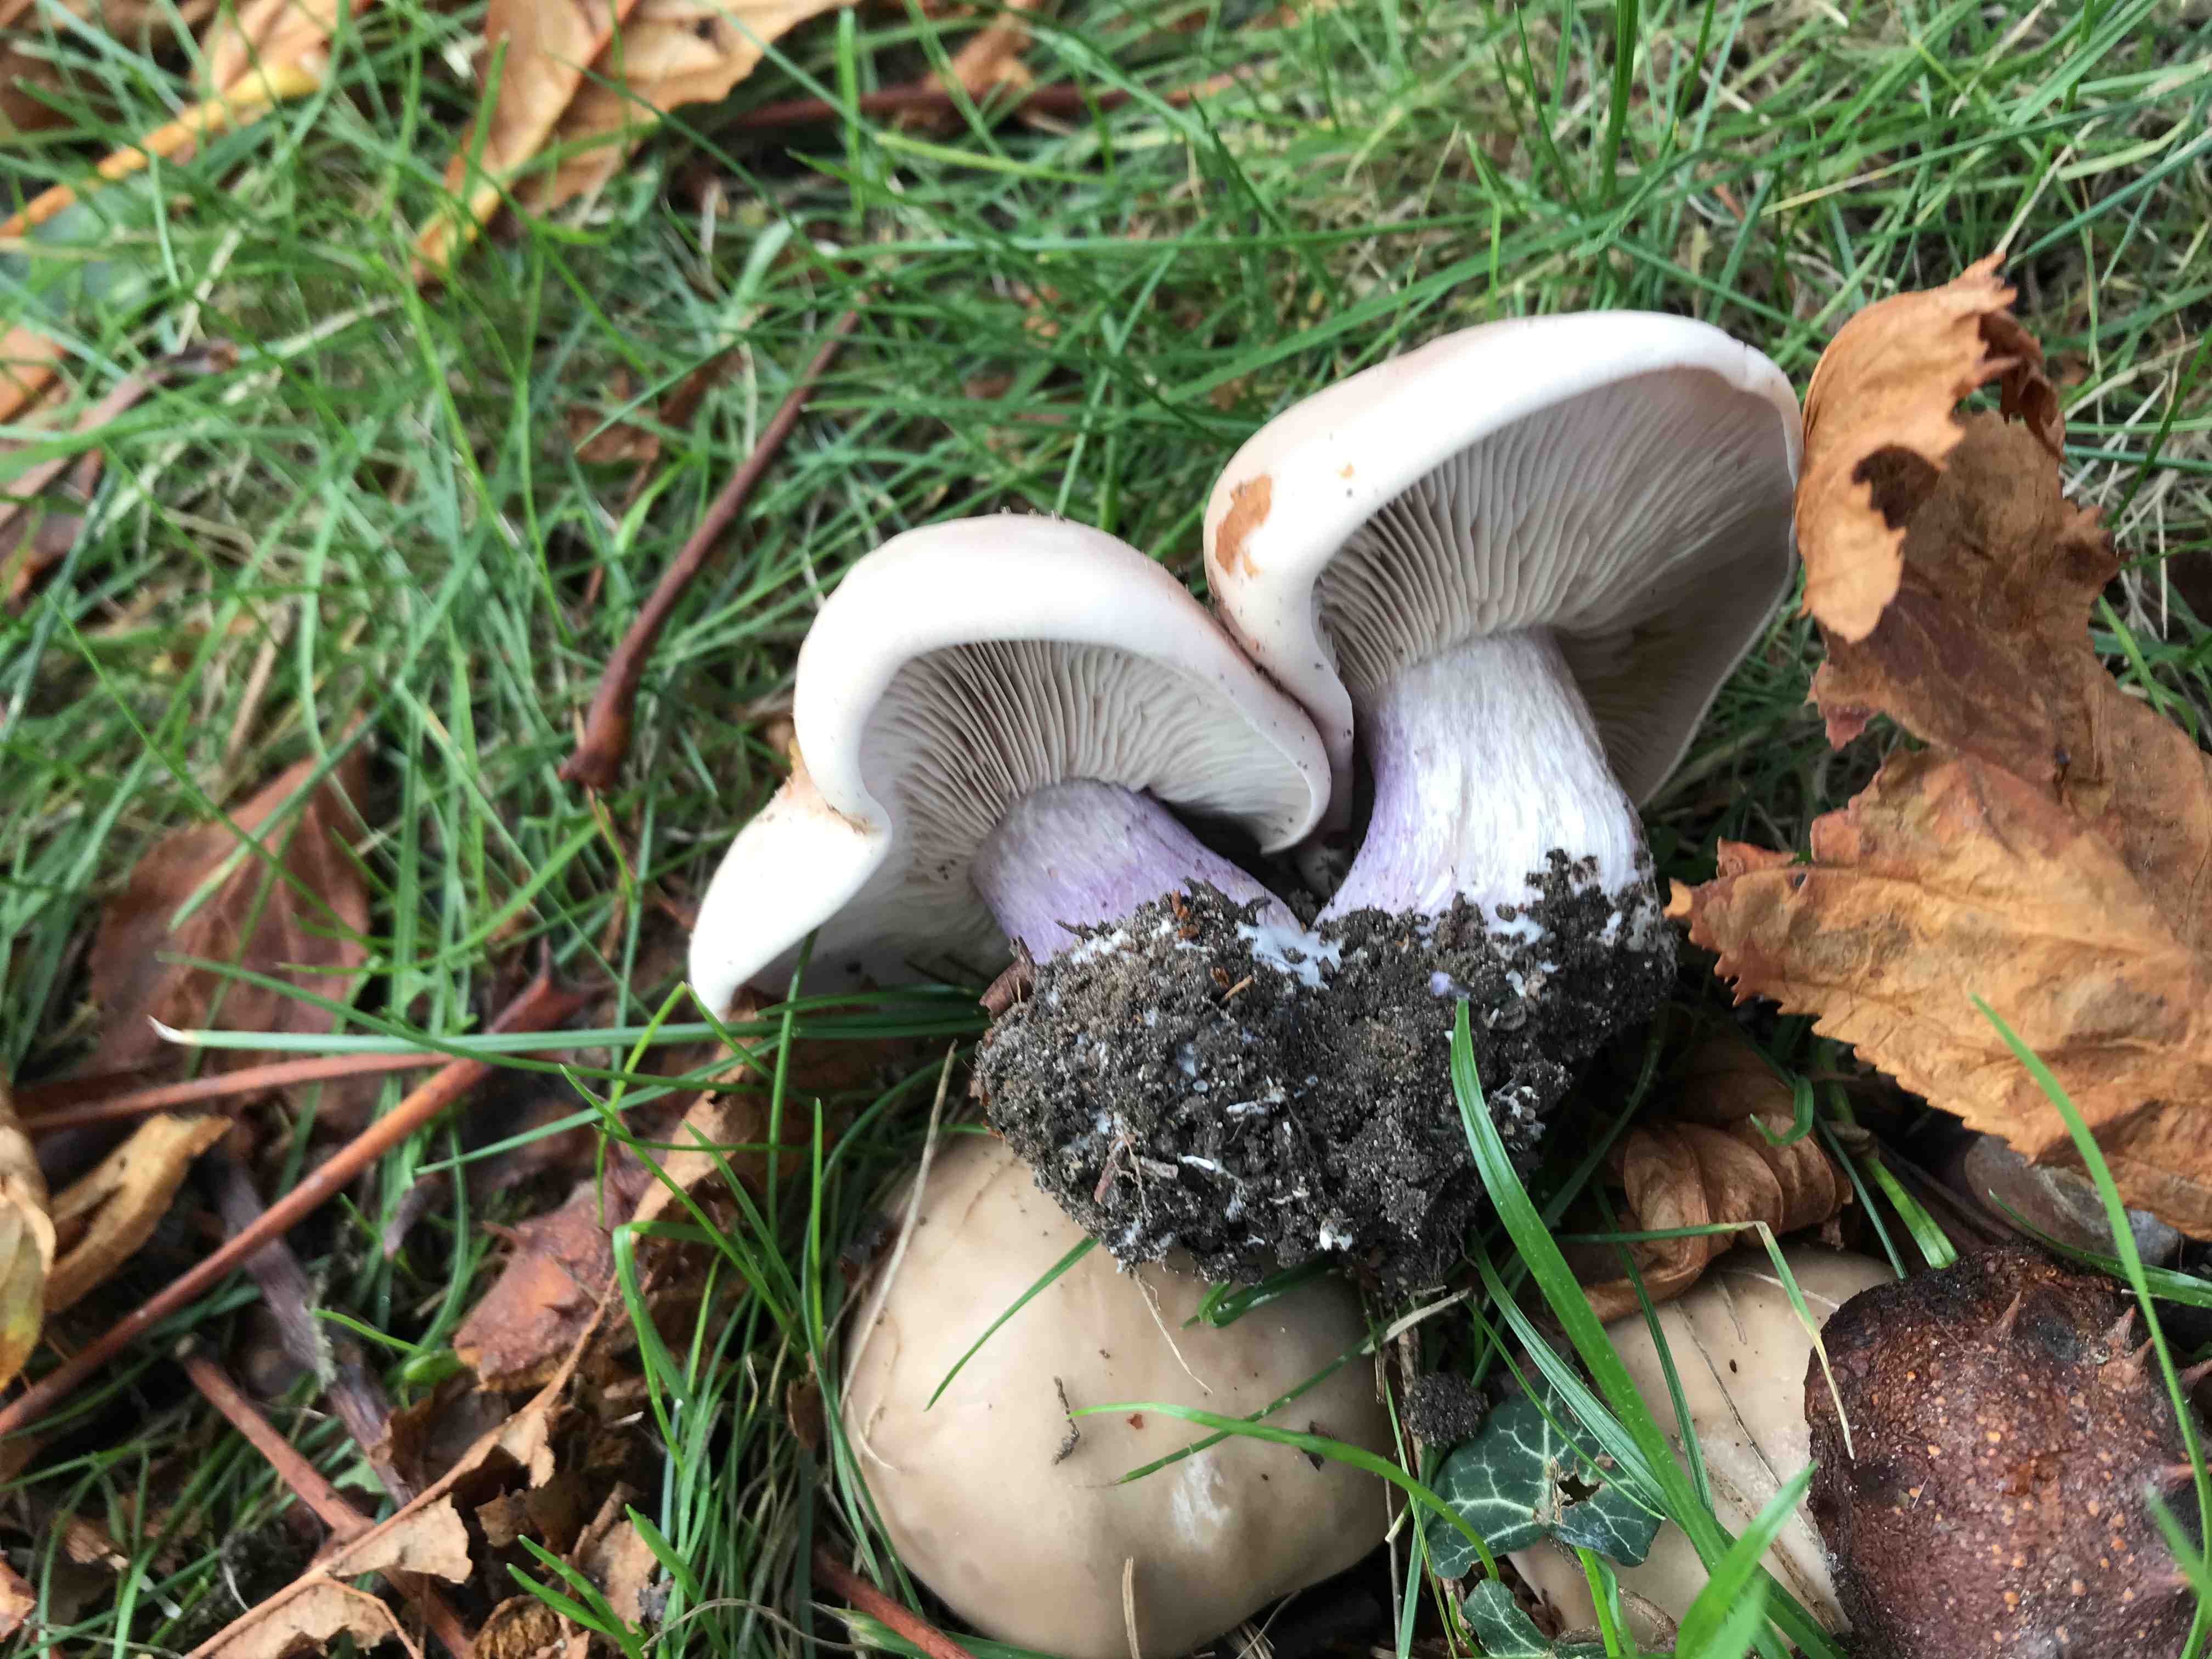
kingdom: Fungi
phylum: Basidiomycota
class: Agaricomycetes
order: Agaricales
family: Tricholomataceae
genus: Lepista
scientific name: Lepista personata
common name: bleg hekseringshat
